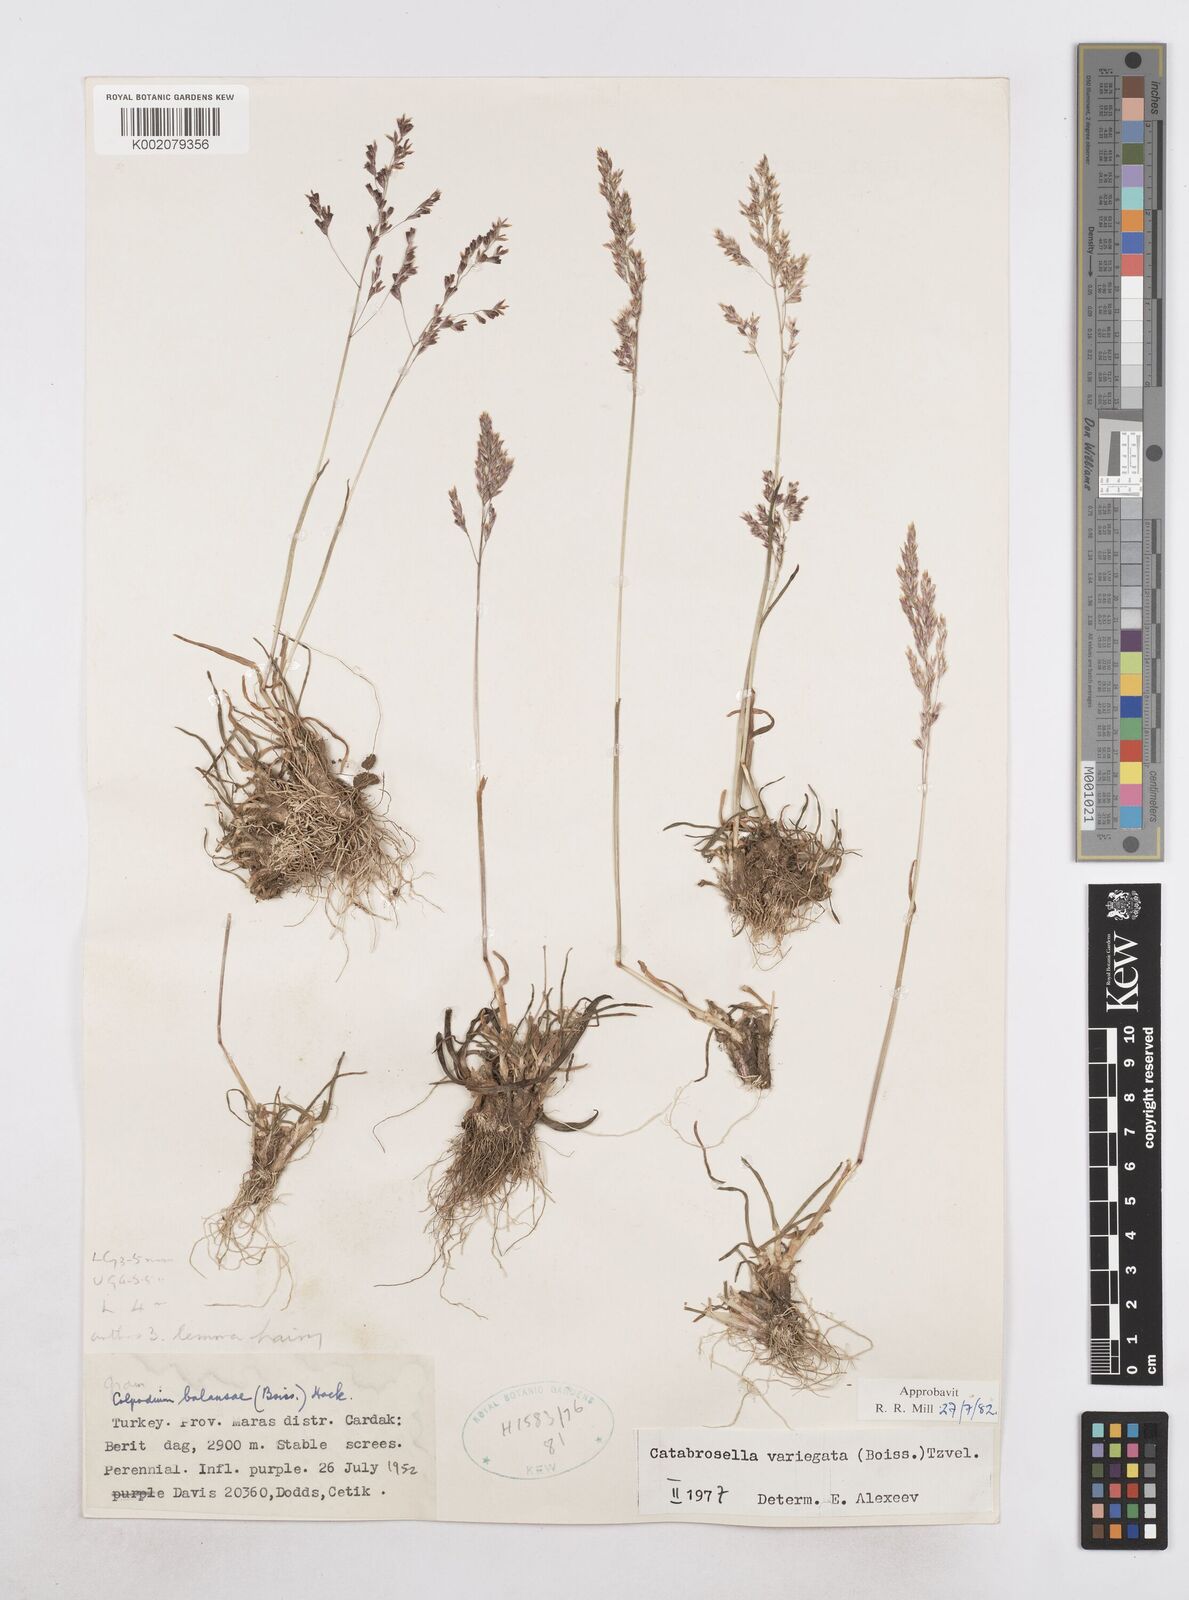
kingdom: Plantae
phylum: Tracheophyta
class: Liliopsida
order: Poales
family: Poaceae
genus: Catabrosella
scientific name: Catabrosella variegata
